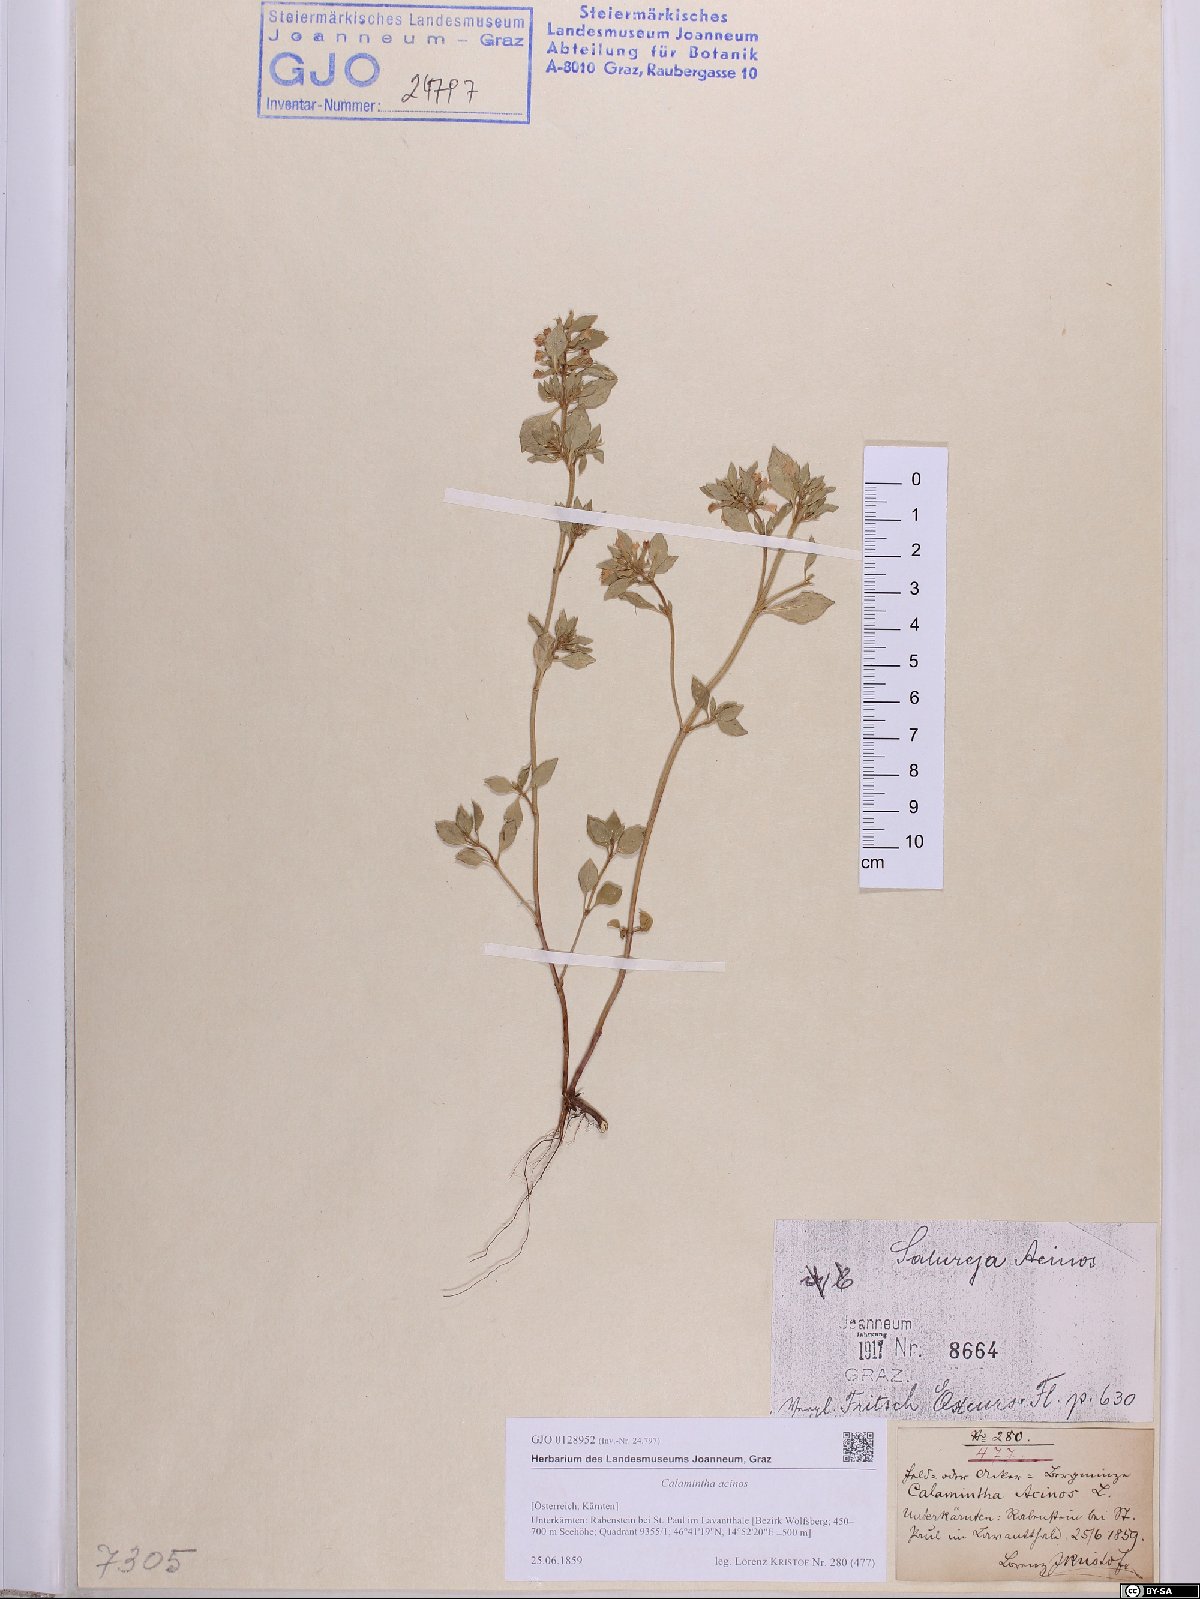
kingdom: Plantae
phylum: Tracheophyta
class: Magnoliopsida
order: Lamiales
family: Lamiaceae
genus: Clinopodium
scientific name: Clinopodium acinos
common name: Basil thyme
